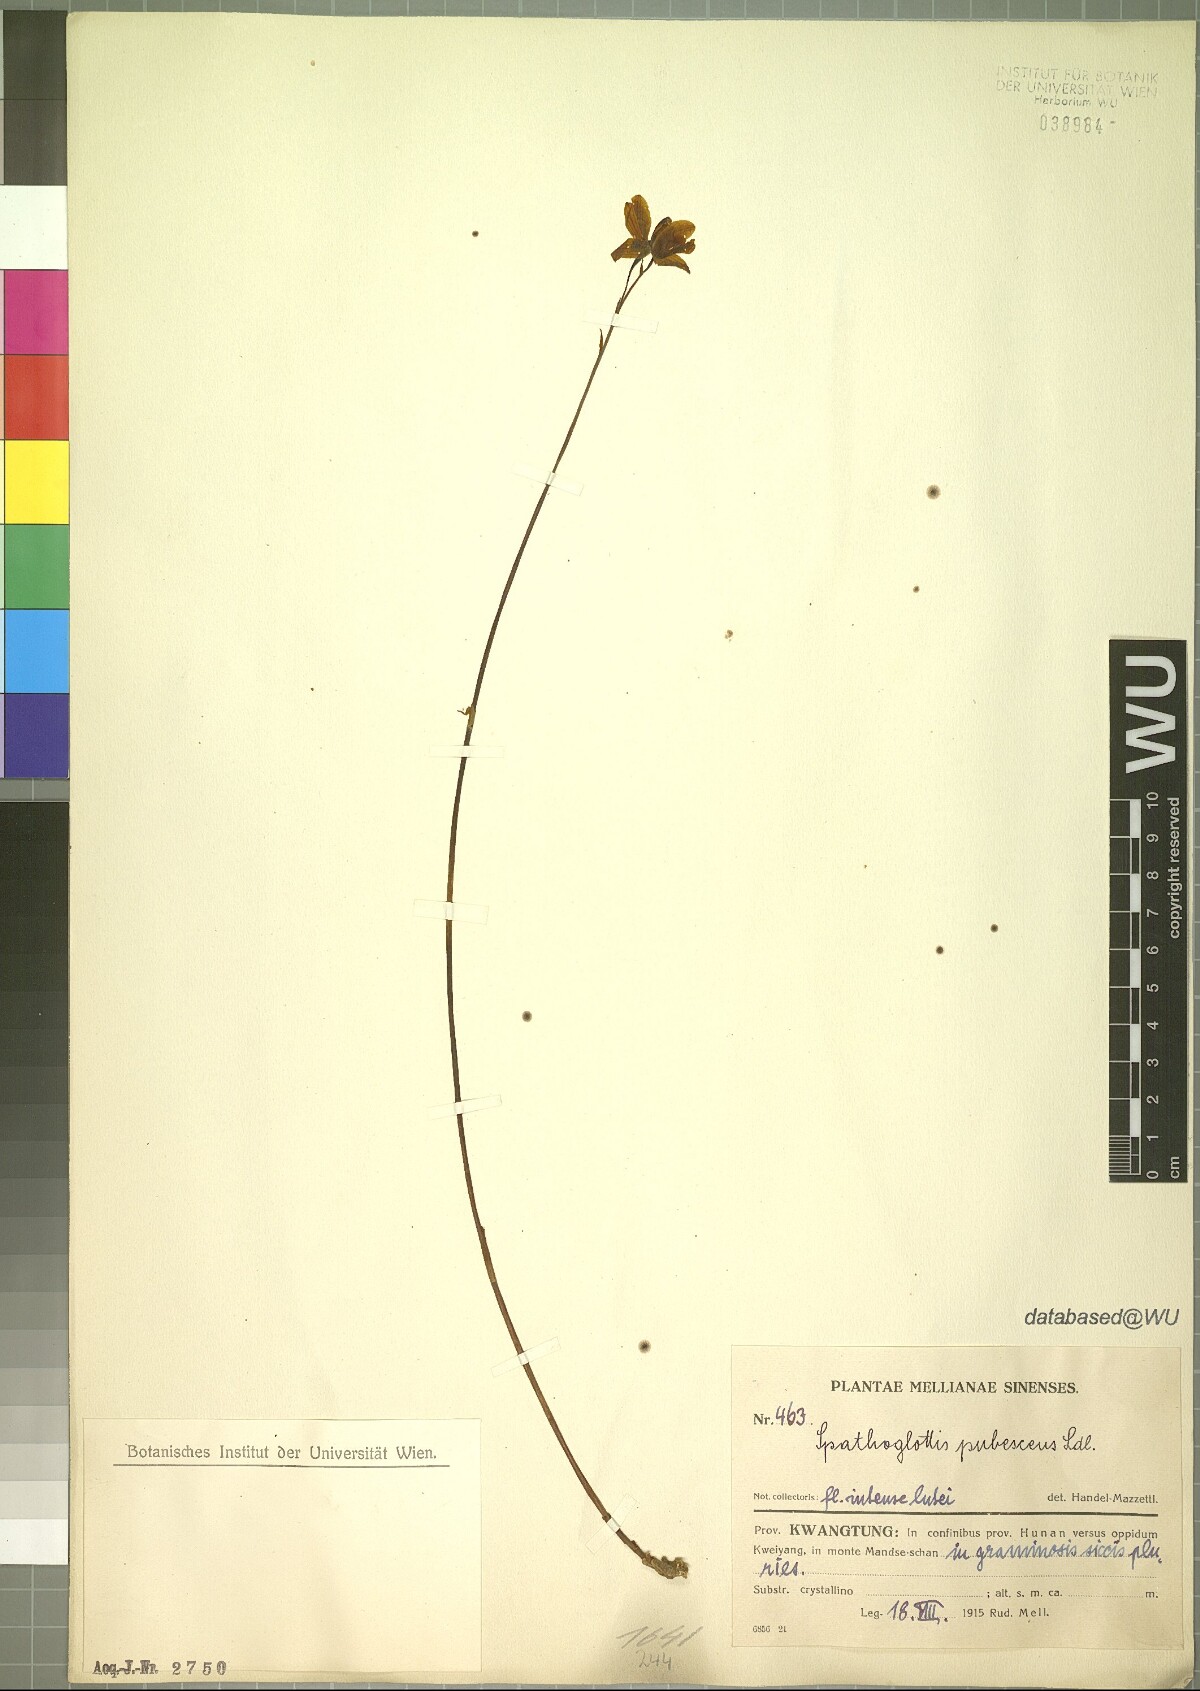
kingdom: Plantae
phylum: Tracheophyta
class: Liliopsida
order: Asparagales
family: Orchidaceae
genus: Spathoglottis
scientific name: Spathoglottis pubescens
